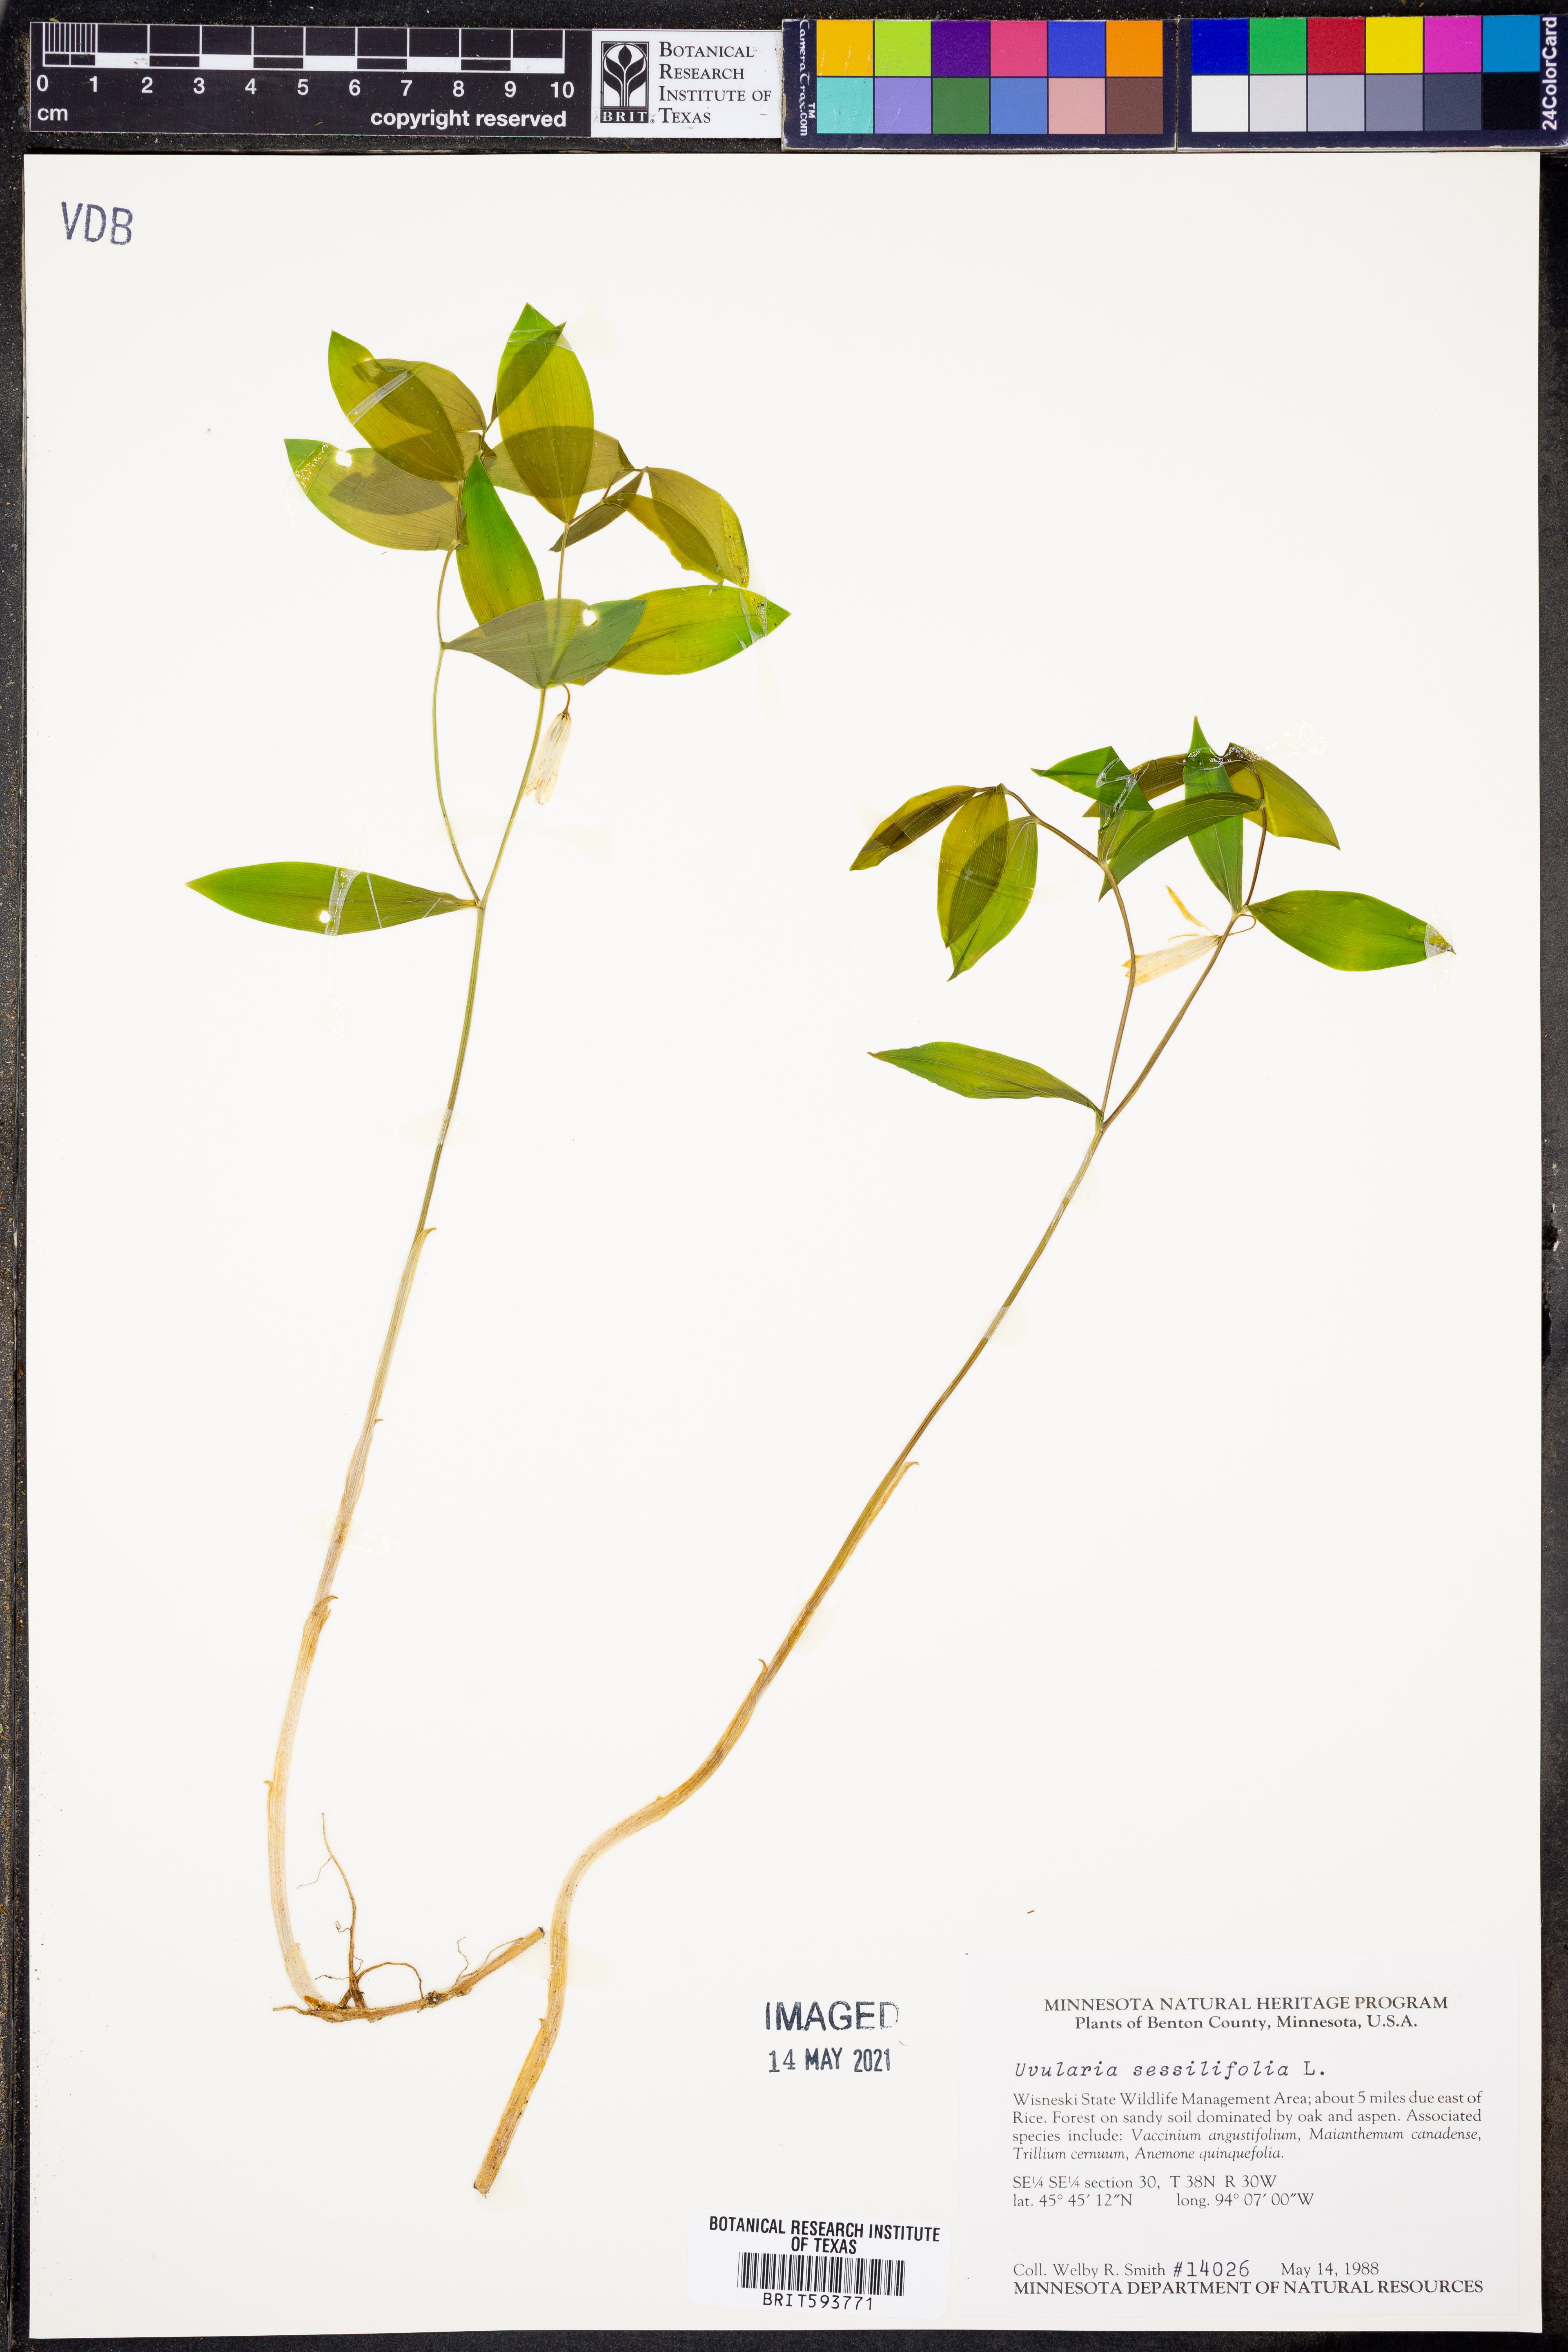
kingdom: Plantae
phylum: Tracheophyta
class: Liliopsida
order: Liliales
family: Colchicaceae
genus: Uvularia
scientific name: Uvularia sessilifolia
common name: Straw-lily
